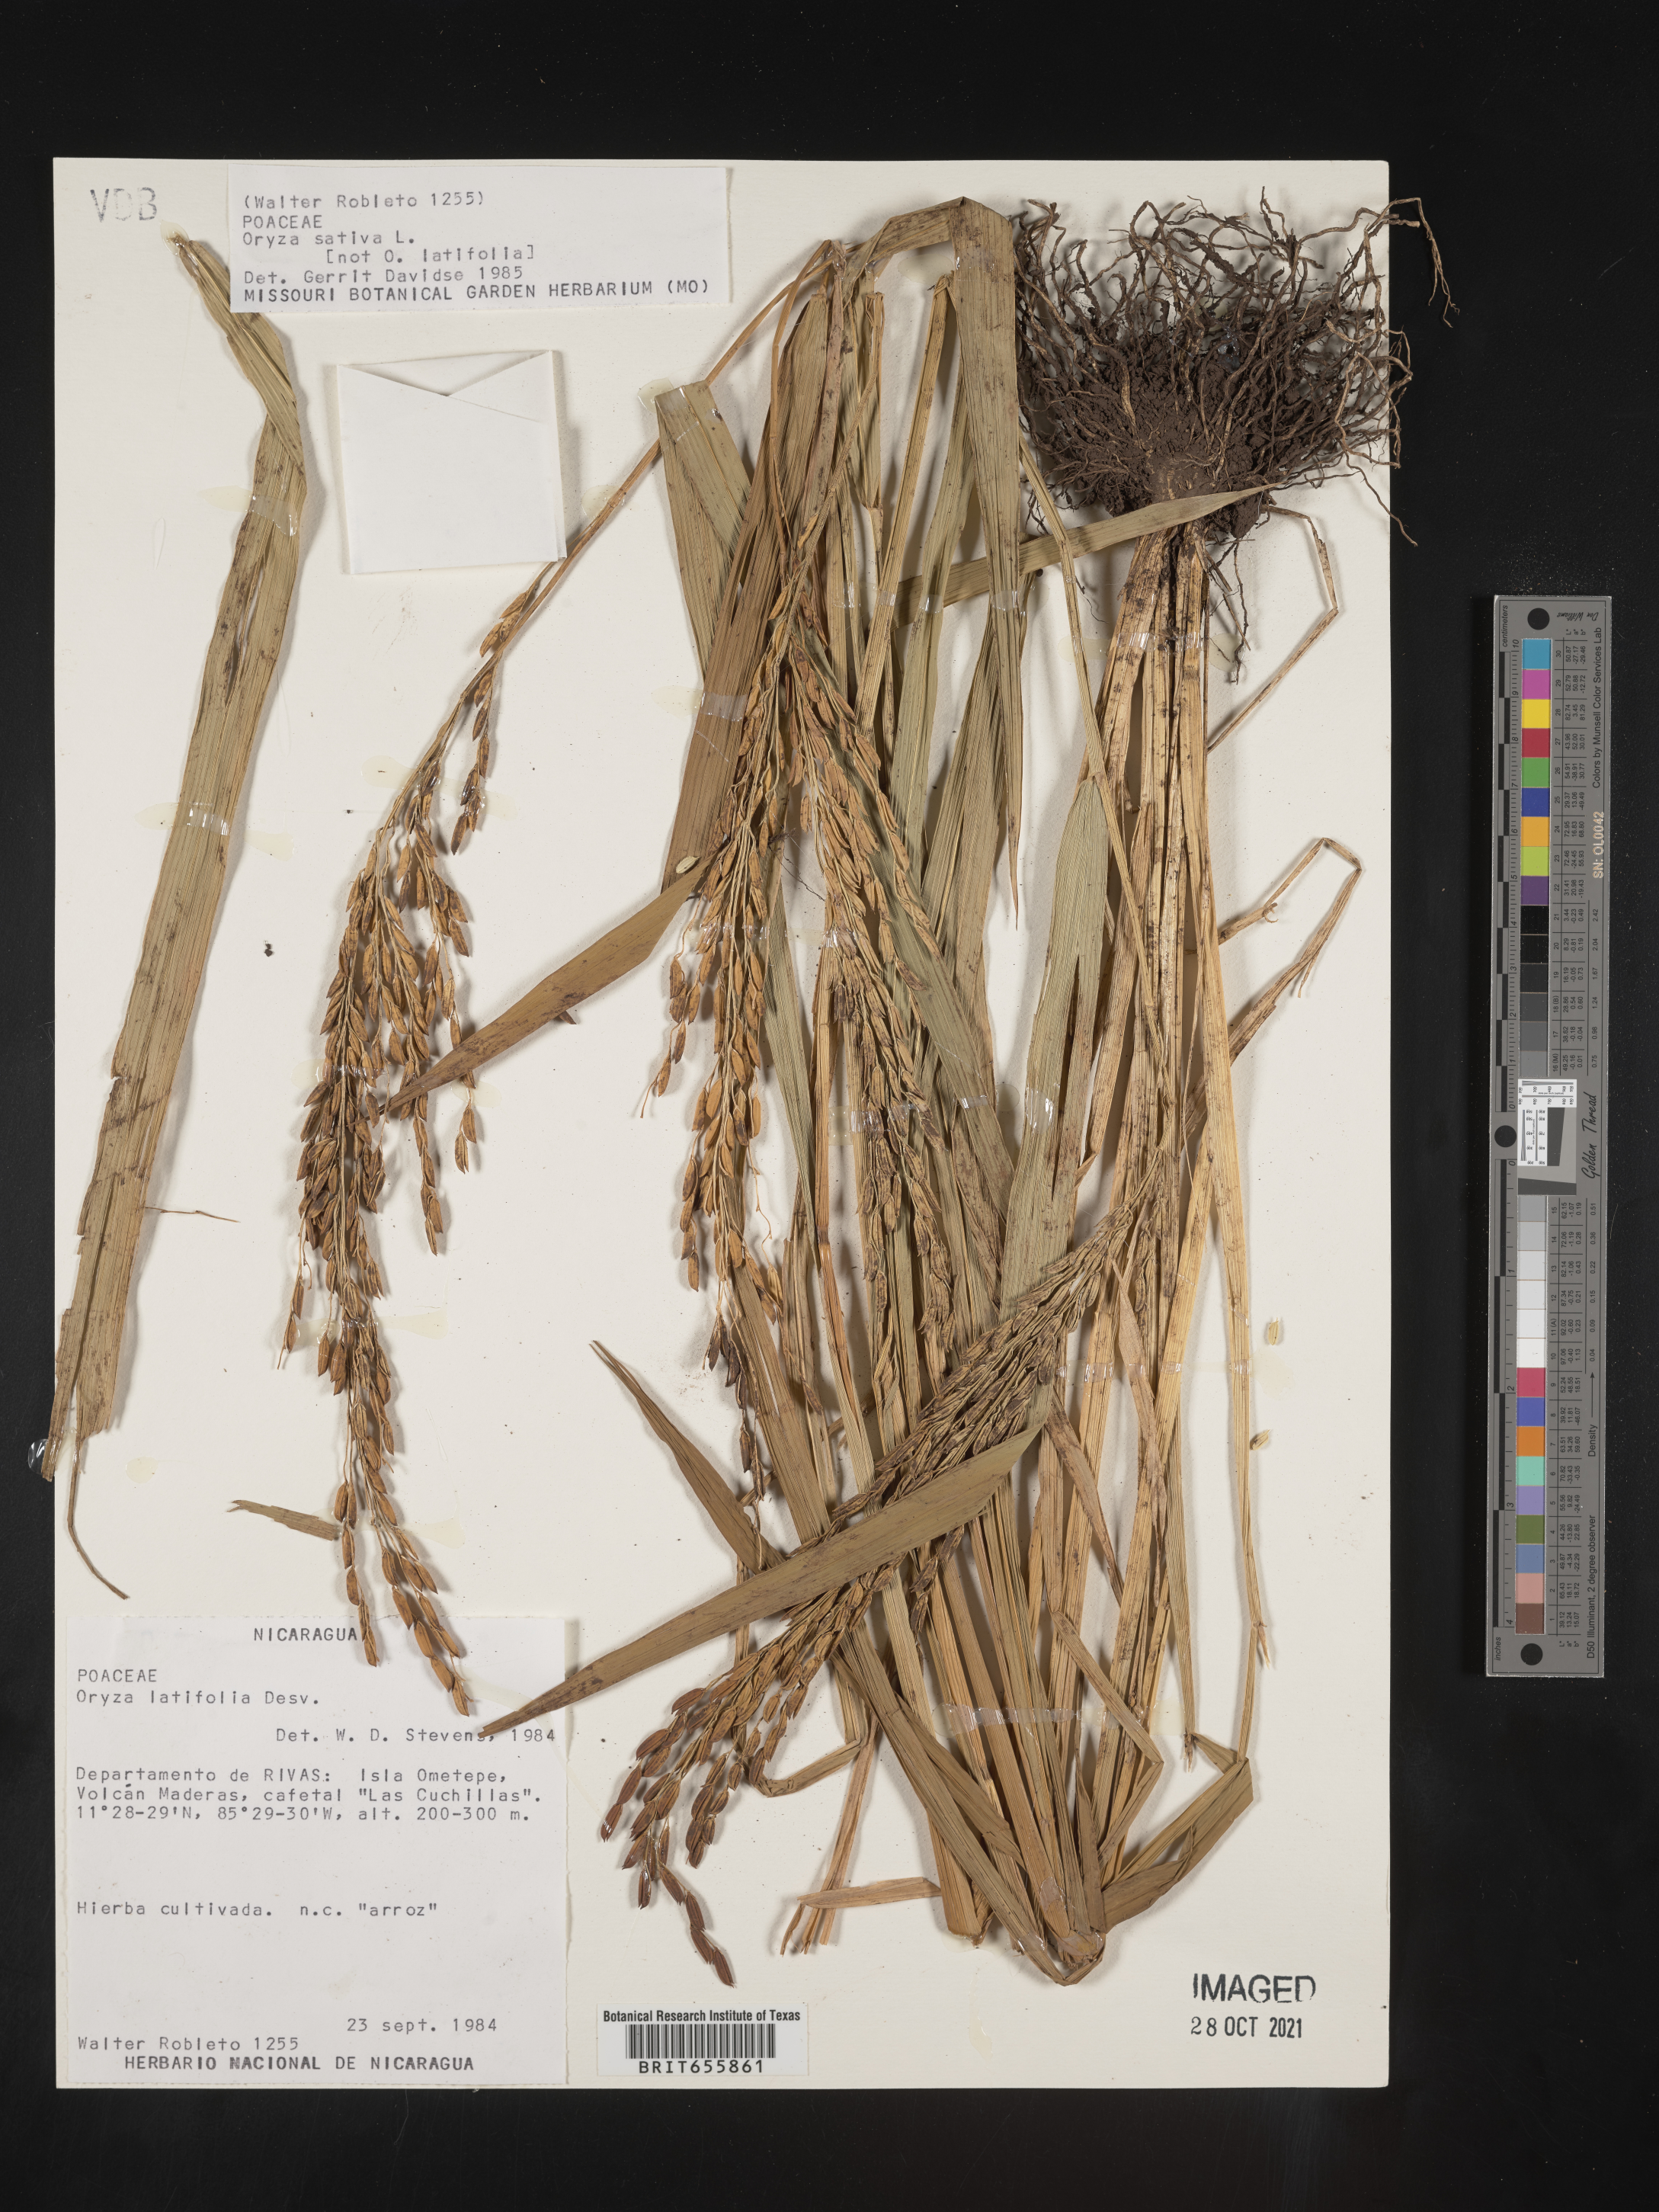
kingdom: Plantae
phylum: Tracheophyta
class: Liliopsida
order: Poales
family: Poaceae
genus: Oryza
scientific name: Oryza
